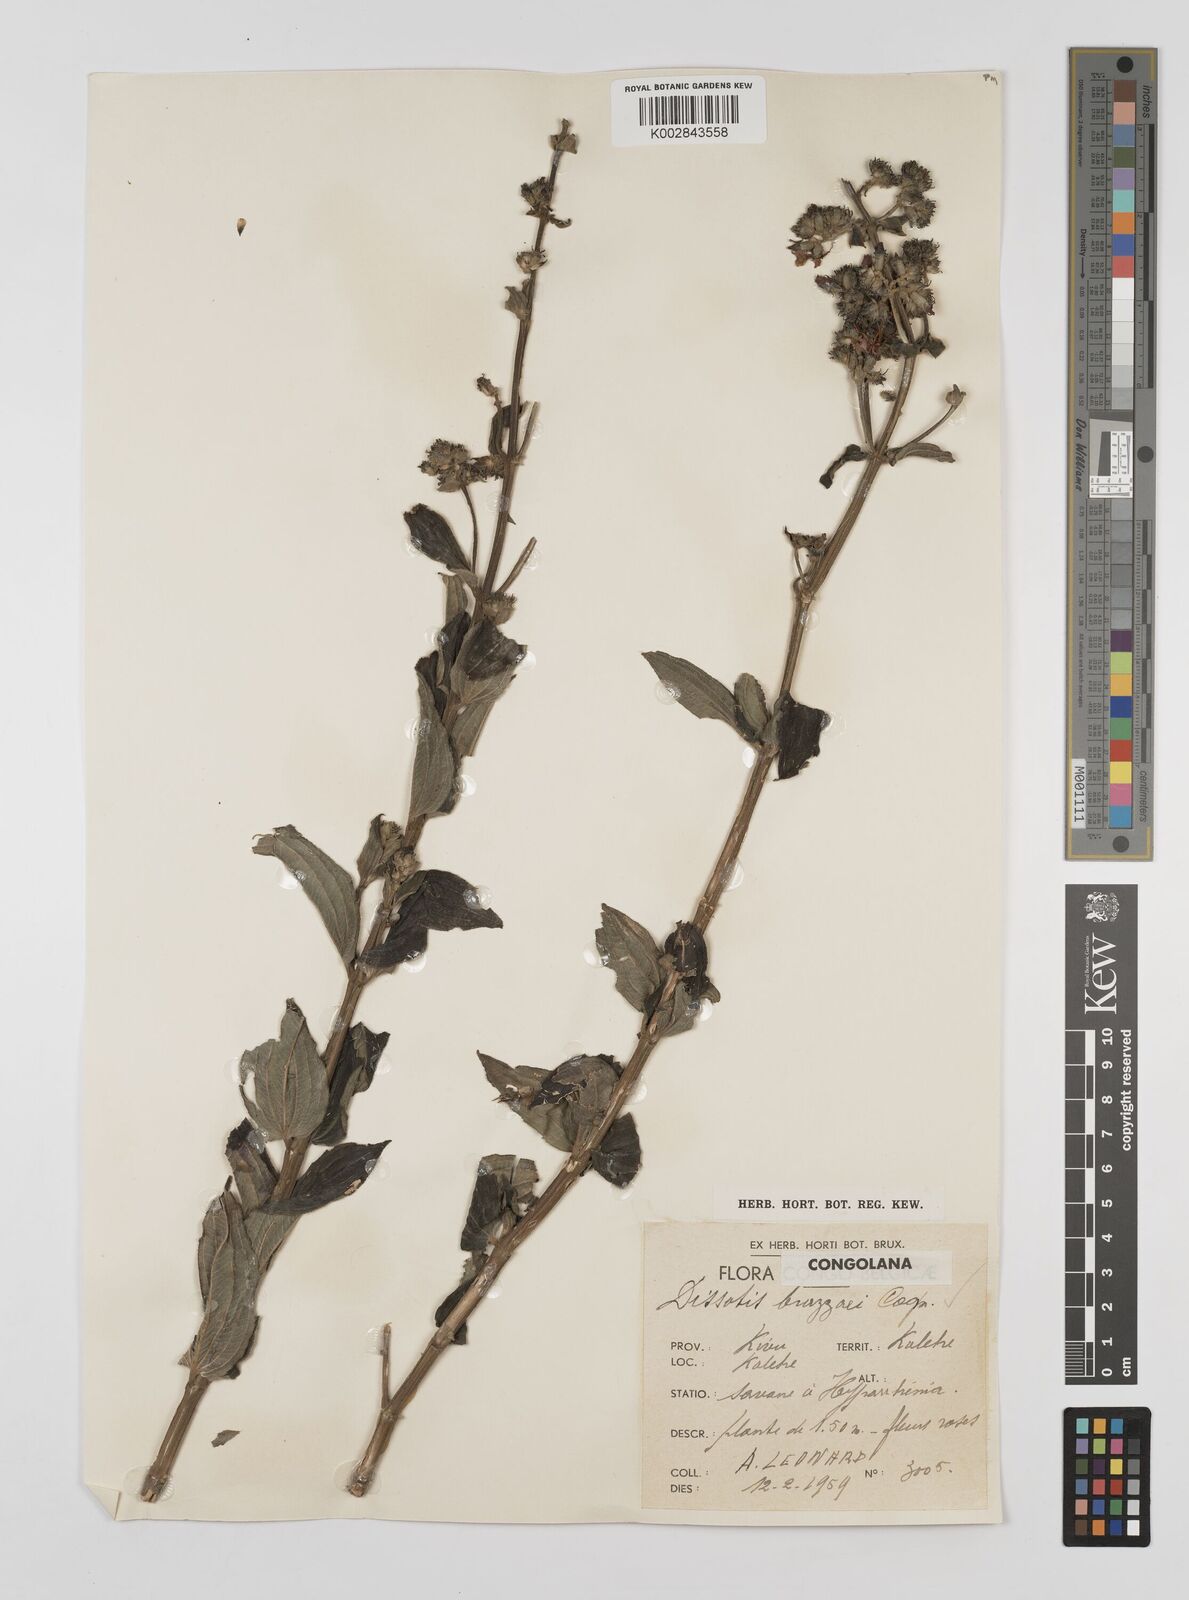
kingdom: Plantae
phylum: Tracheophyta
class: Magnoliopsida
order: Myrtales
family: Melastomataceae
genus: Dupineta
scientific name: Dupineta brazzae
